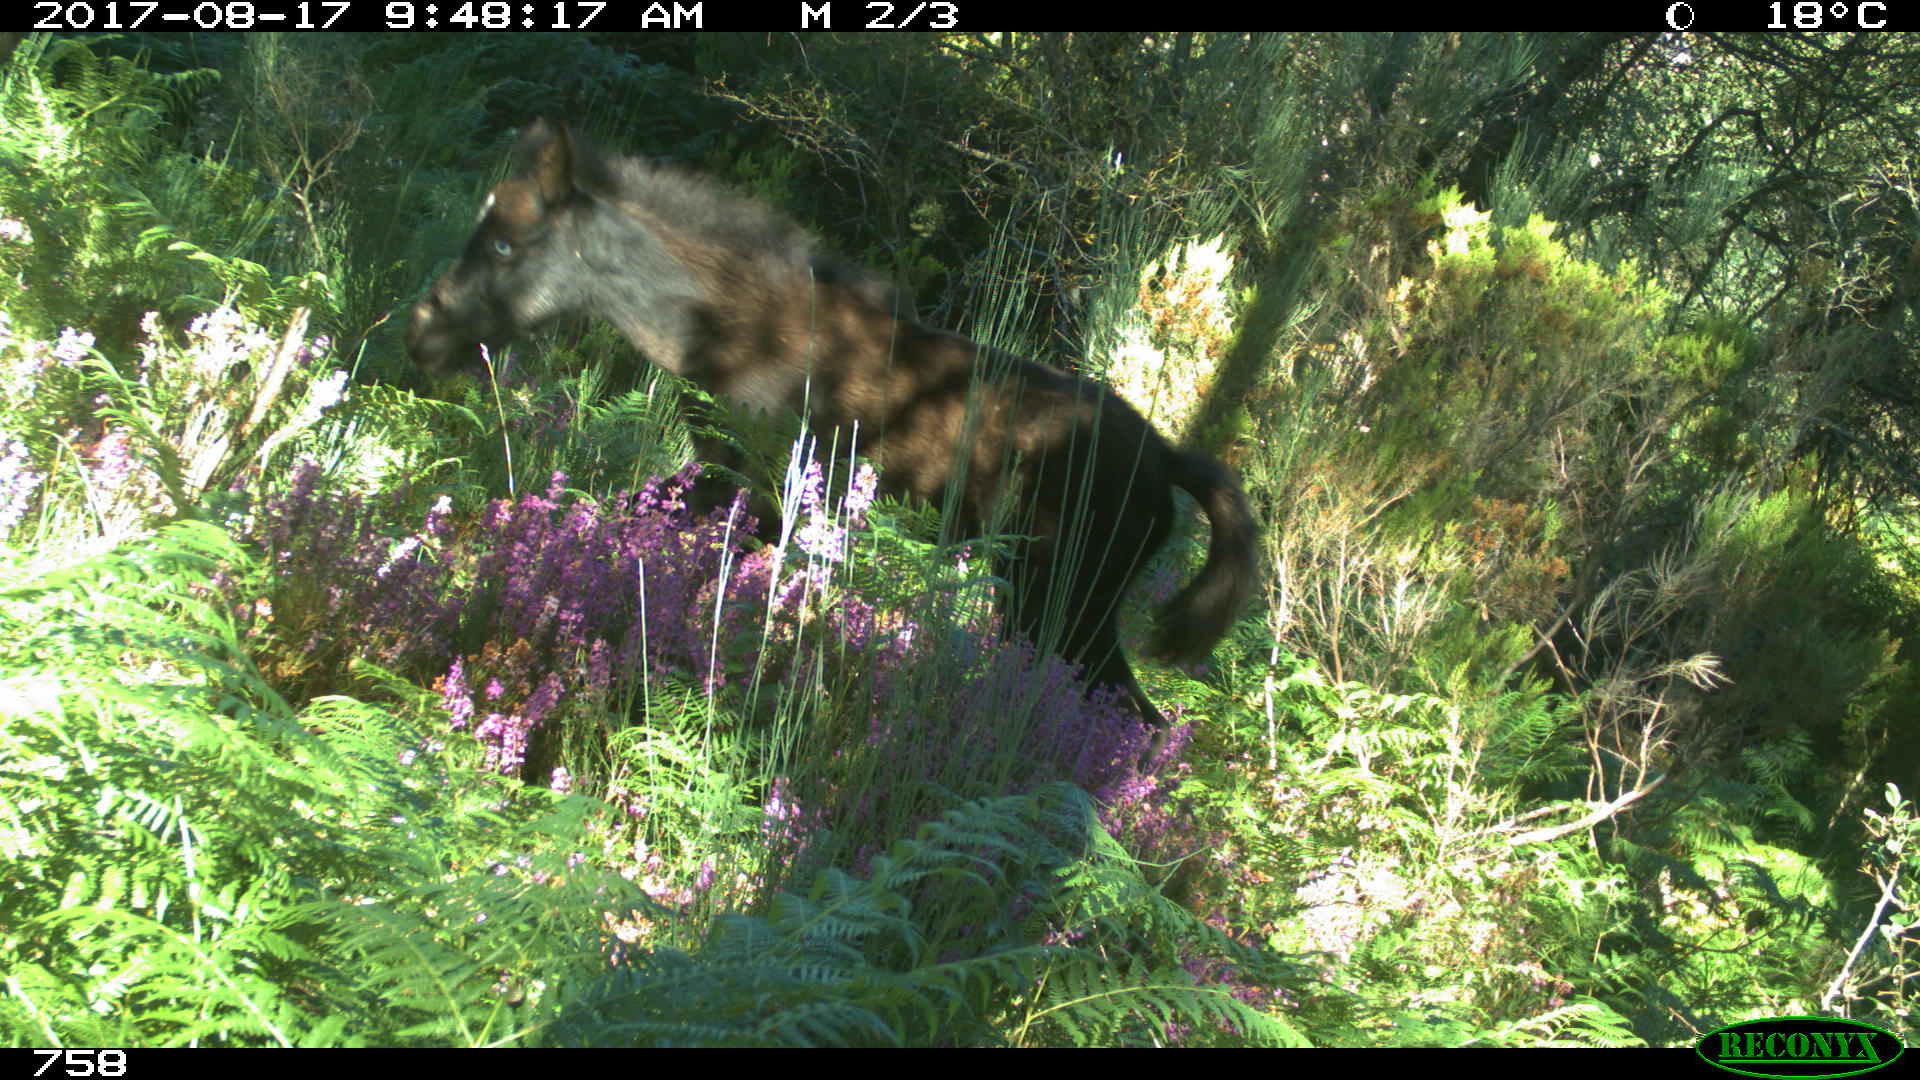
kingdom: Animalia
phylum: Chordata
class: Mammalia
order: Perissodactyla
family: Equidae
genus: Equus
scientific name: Equus caballus
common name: Horse
